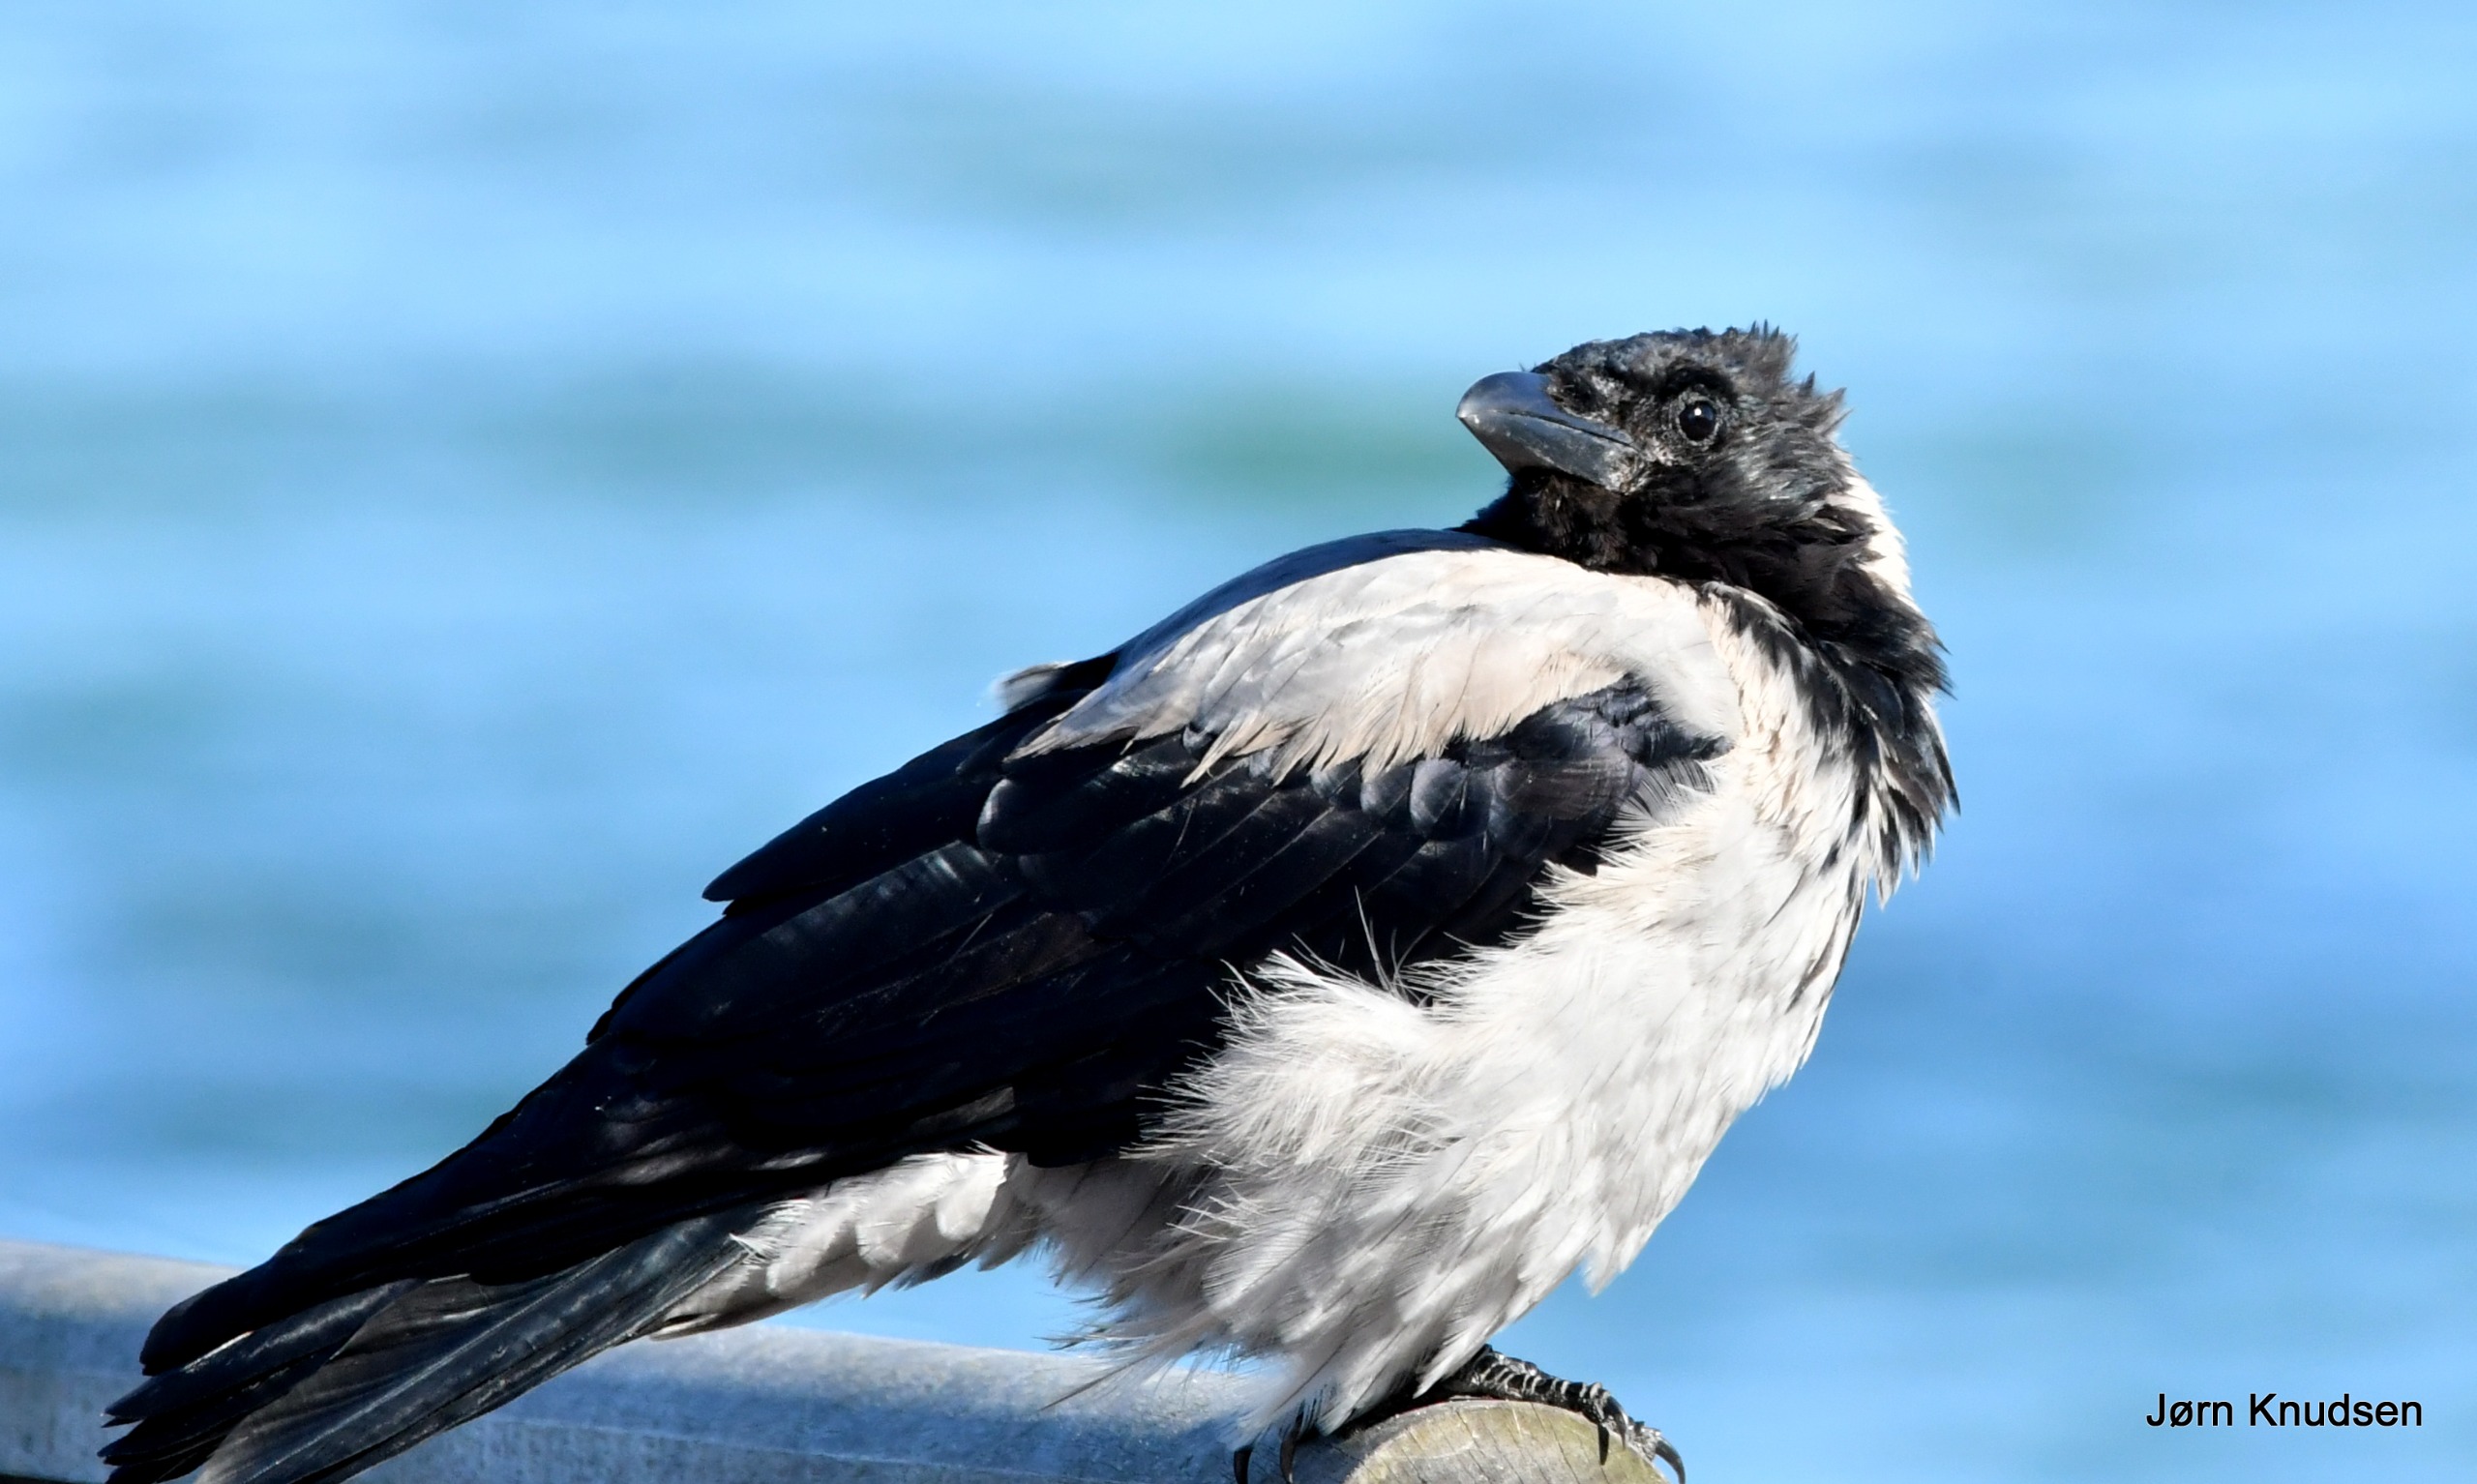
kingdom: Animalia
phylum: Chordata
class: Aves
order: Passeriformes
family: Corvidae
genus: Corvus
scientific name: Corvus cornix
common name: Gråkrage
